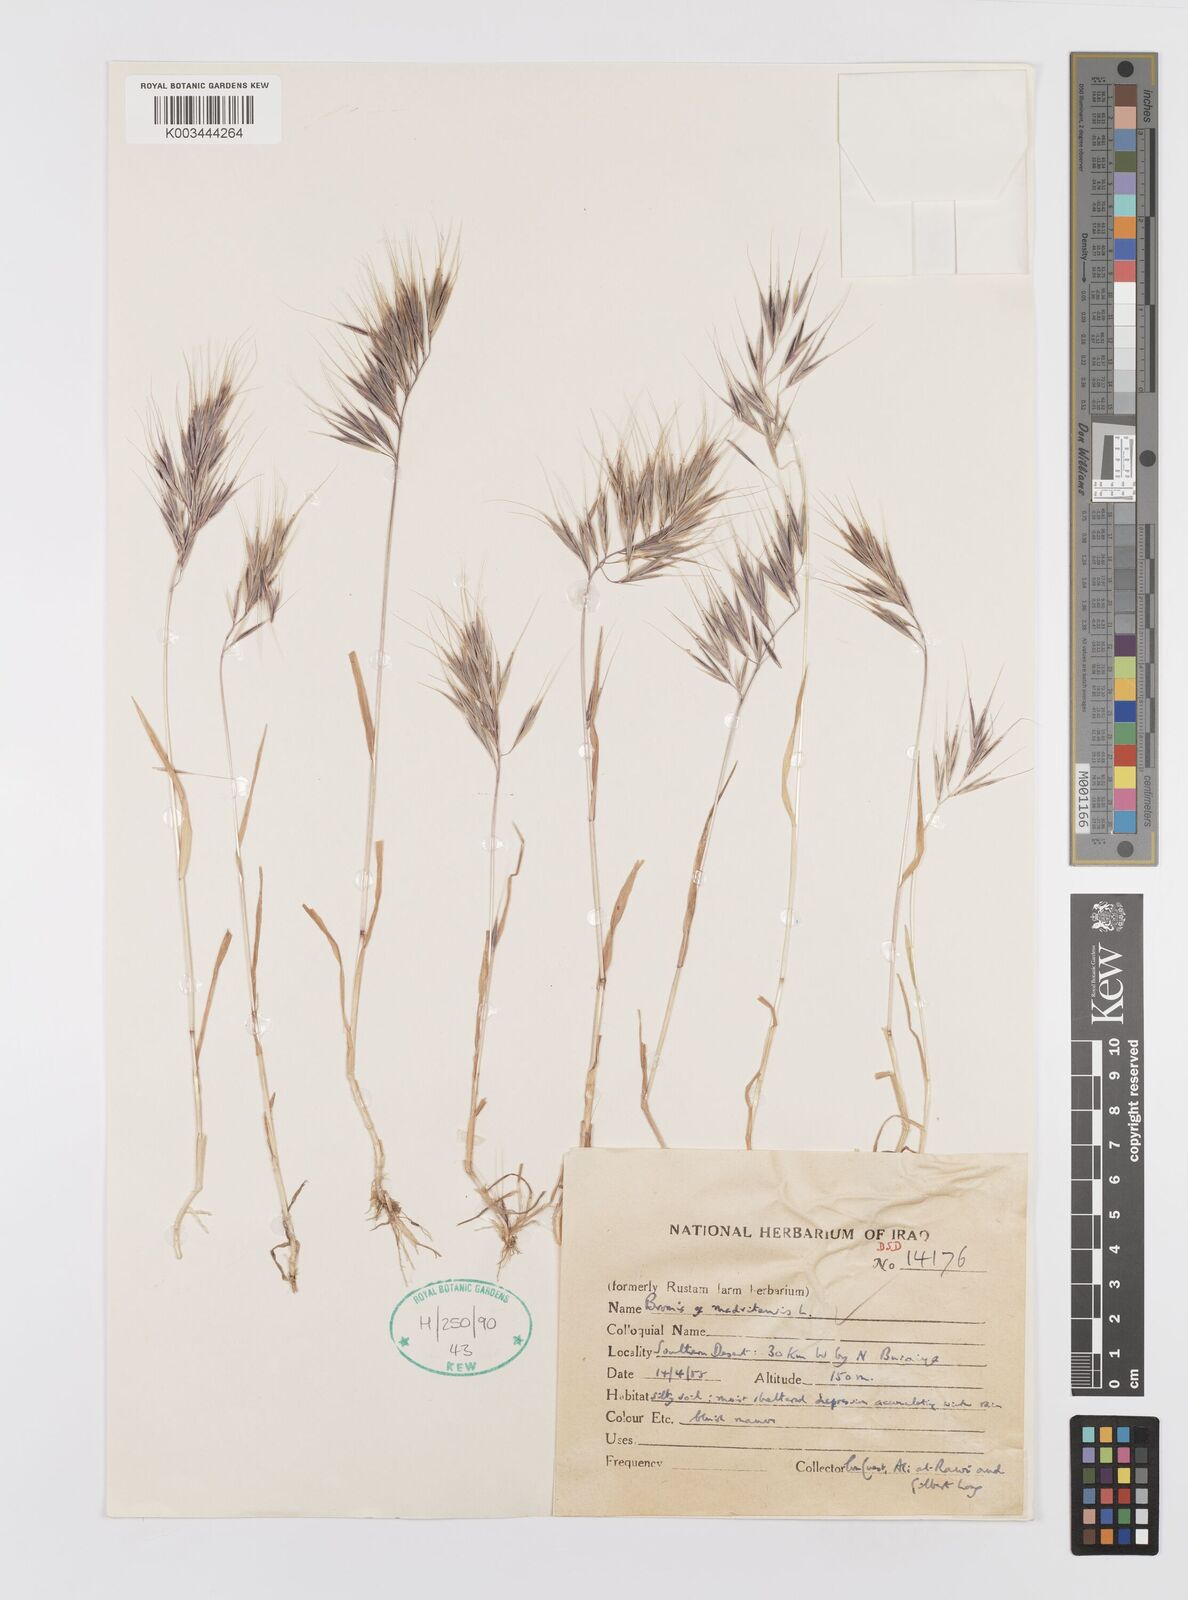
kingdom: Plantae
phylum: Tracheophyta
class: Liliopsida
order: Poales
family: Poaceae
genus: Bromus
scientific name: Bromus madritensis
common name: Compact brome
